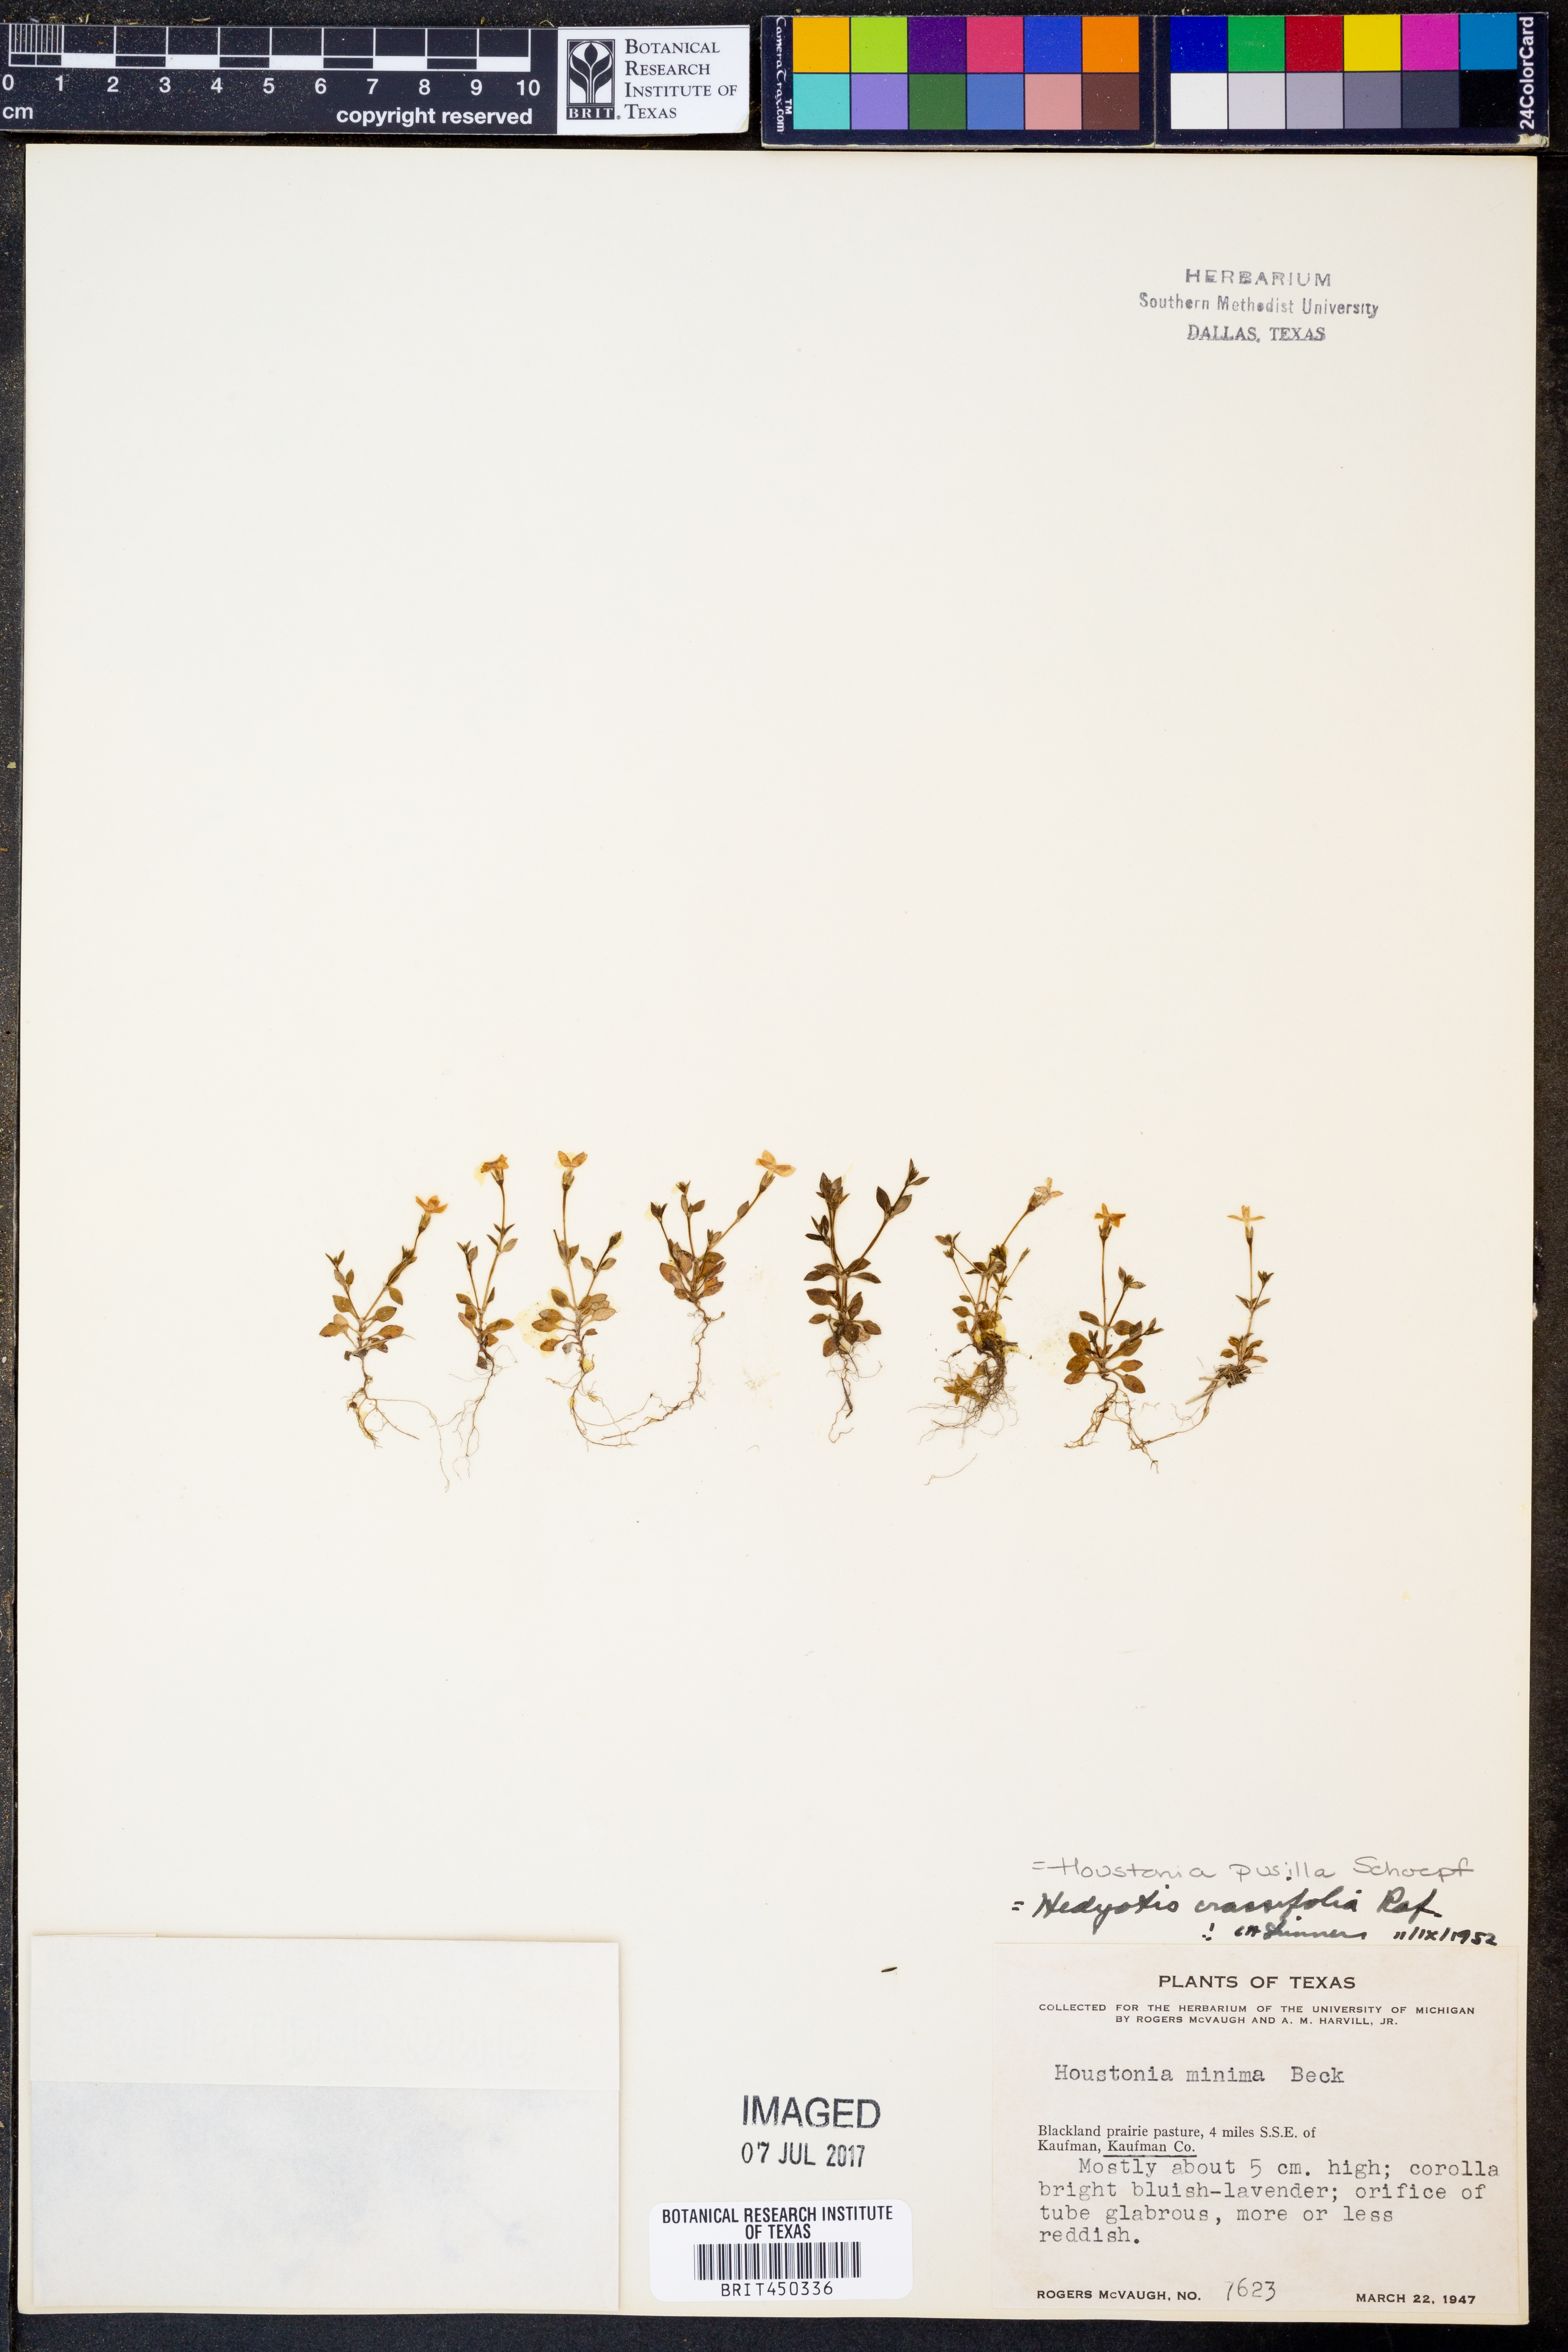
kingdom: Plantae
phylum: Tracheophyta
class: Magnoliopsida
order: Gentianales
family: Rubiaceae
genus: Houstonia
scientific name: Houstonia pusilla
